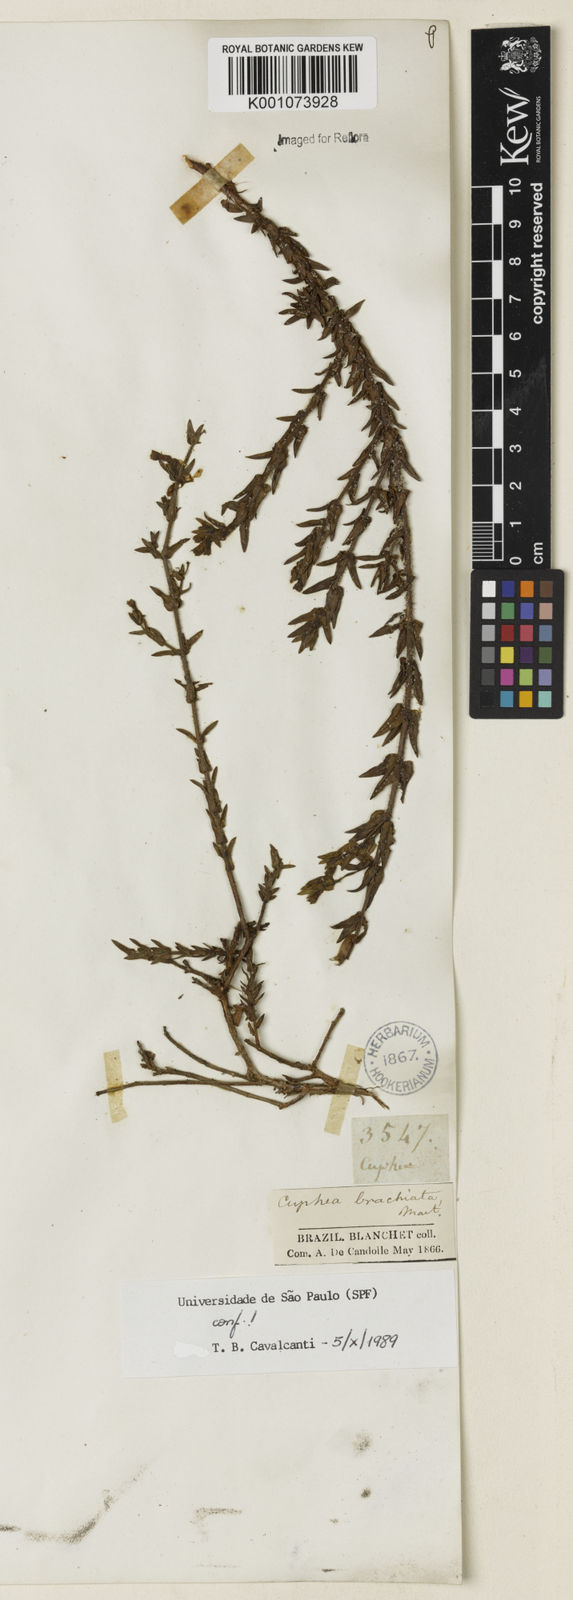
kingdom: Plantae
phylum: Tracheophyta
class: Magnoliopsida
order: Myrtales
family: Lythraceae
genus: Cuphea
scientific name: Cuphea brachiata
